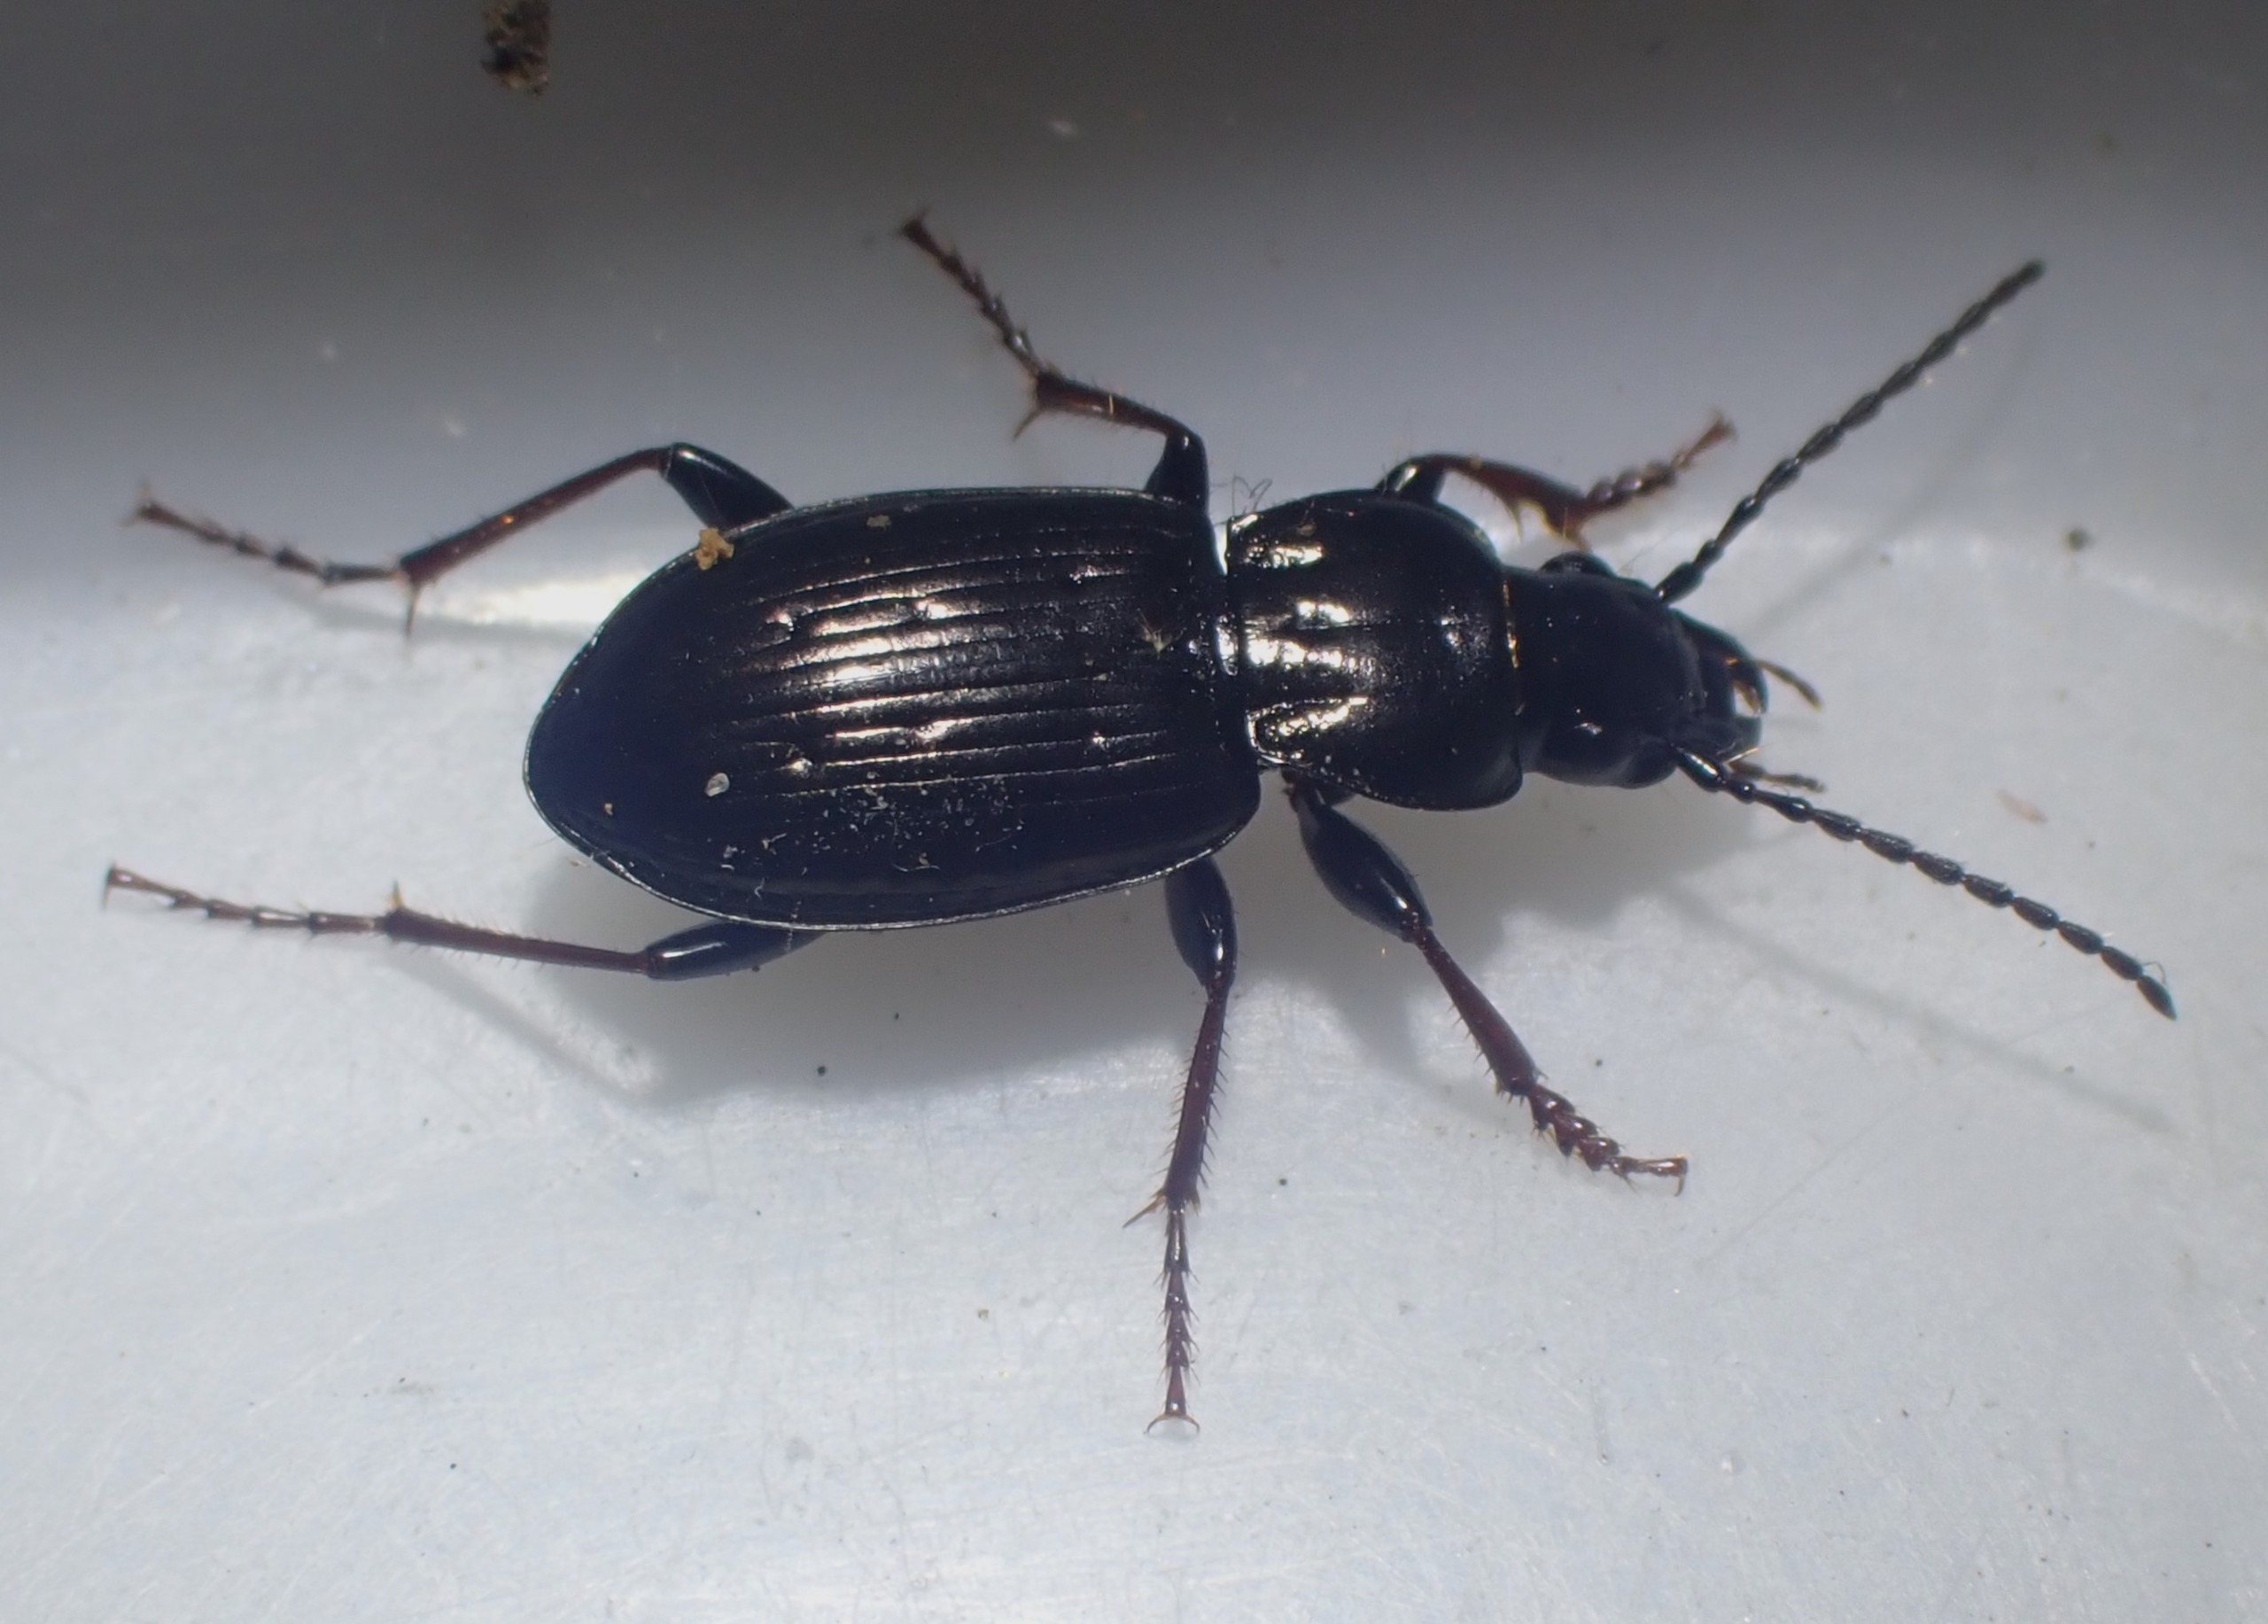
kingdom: Animalia
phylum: Arthropoda
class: Insecta
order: Coleoptera
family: Carabidae
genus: Pterostichus
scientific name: Pterostichus oblongopunctatus
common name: Bronzejordløber
